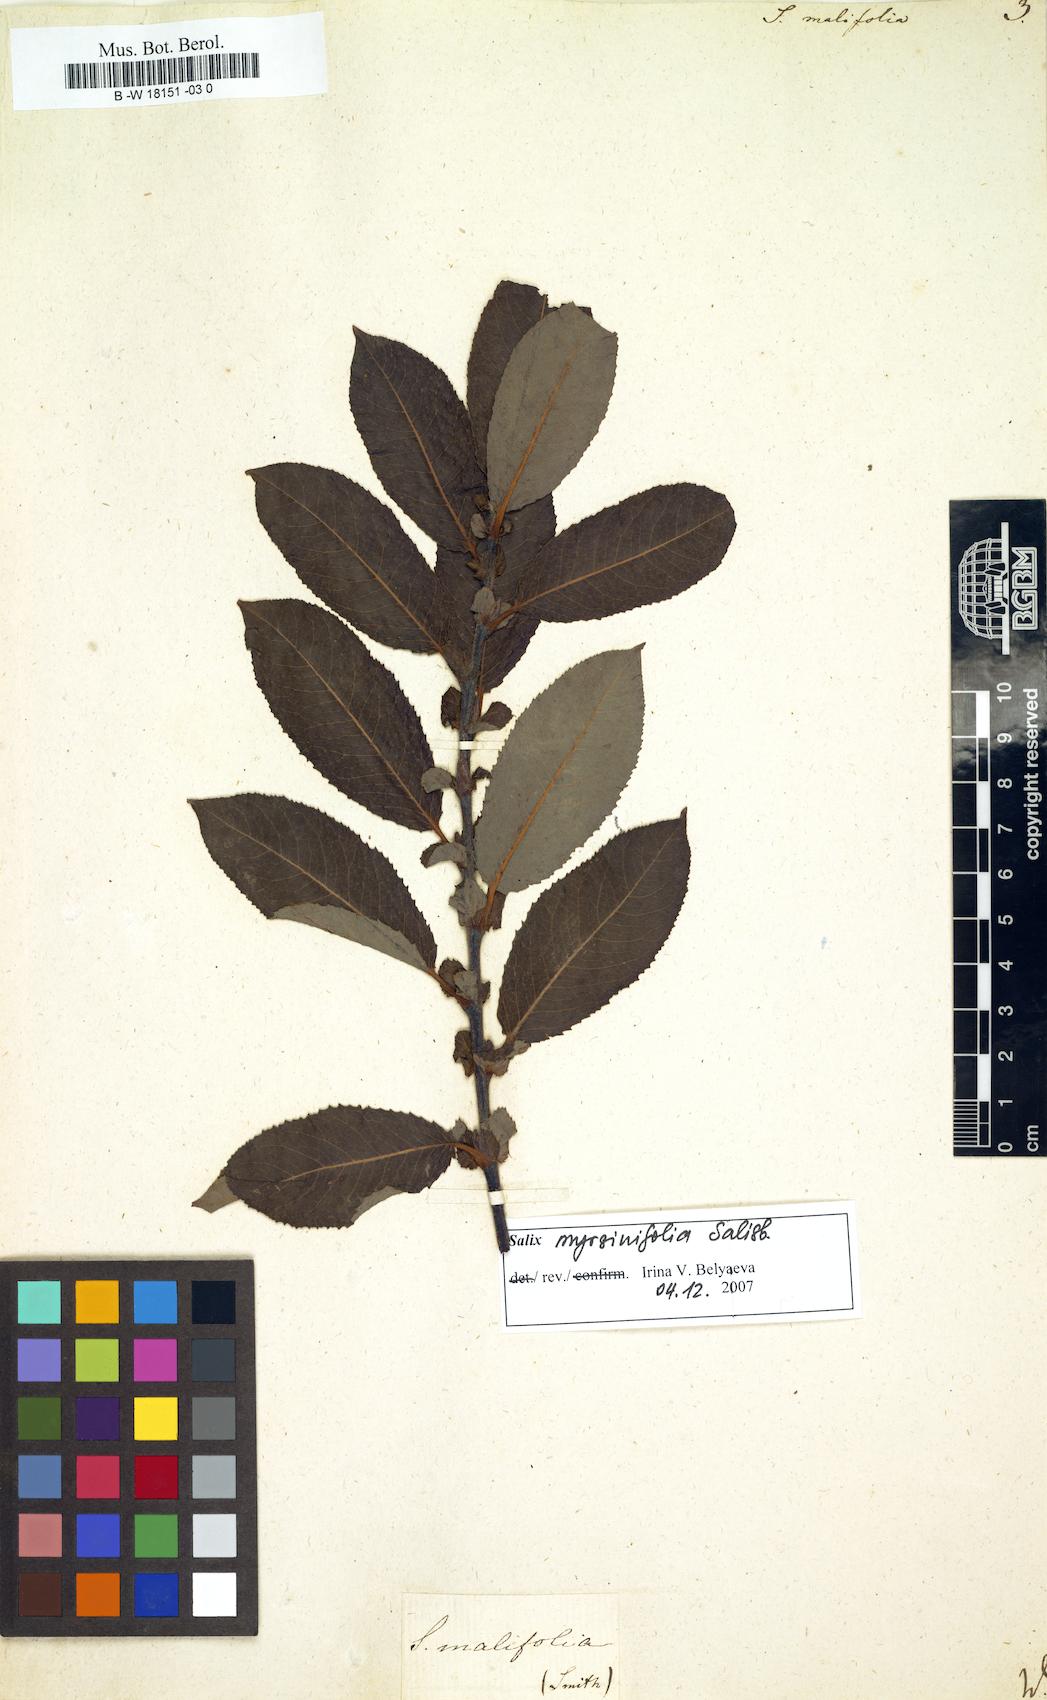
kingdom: Plantae
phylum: Tracheophyta
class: Magnoliopsida
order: Malpighiales
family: Salicaceae
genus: Salix
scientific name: Salix
